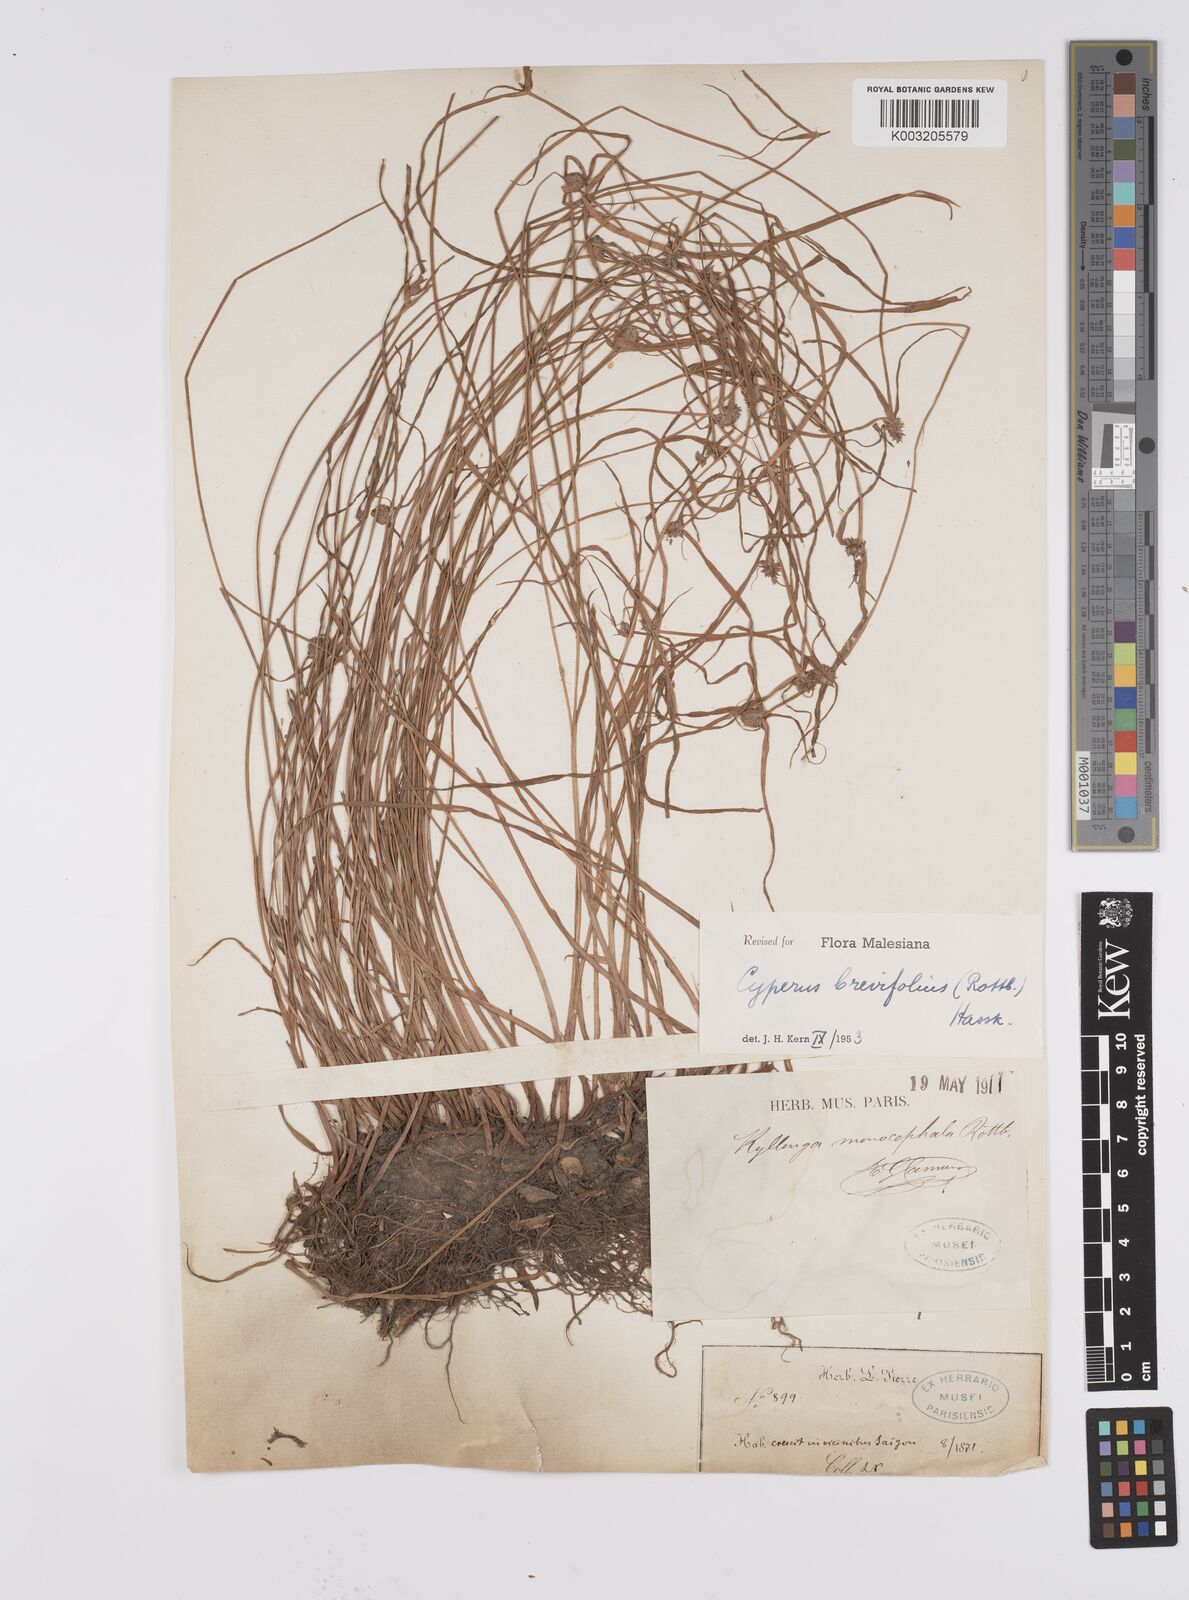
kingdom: Plantae
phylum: Tracheophyta
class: Liliopsida
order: Poales
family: Cyperaceae
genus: Cyperus
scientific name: Cyperus brevifolius
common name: Globe kyllinga
